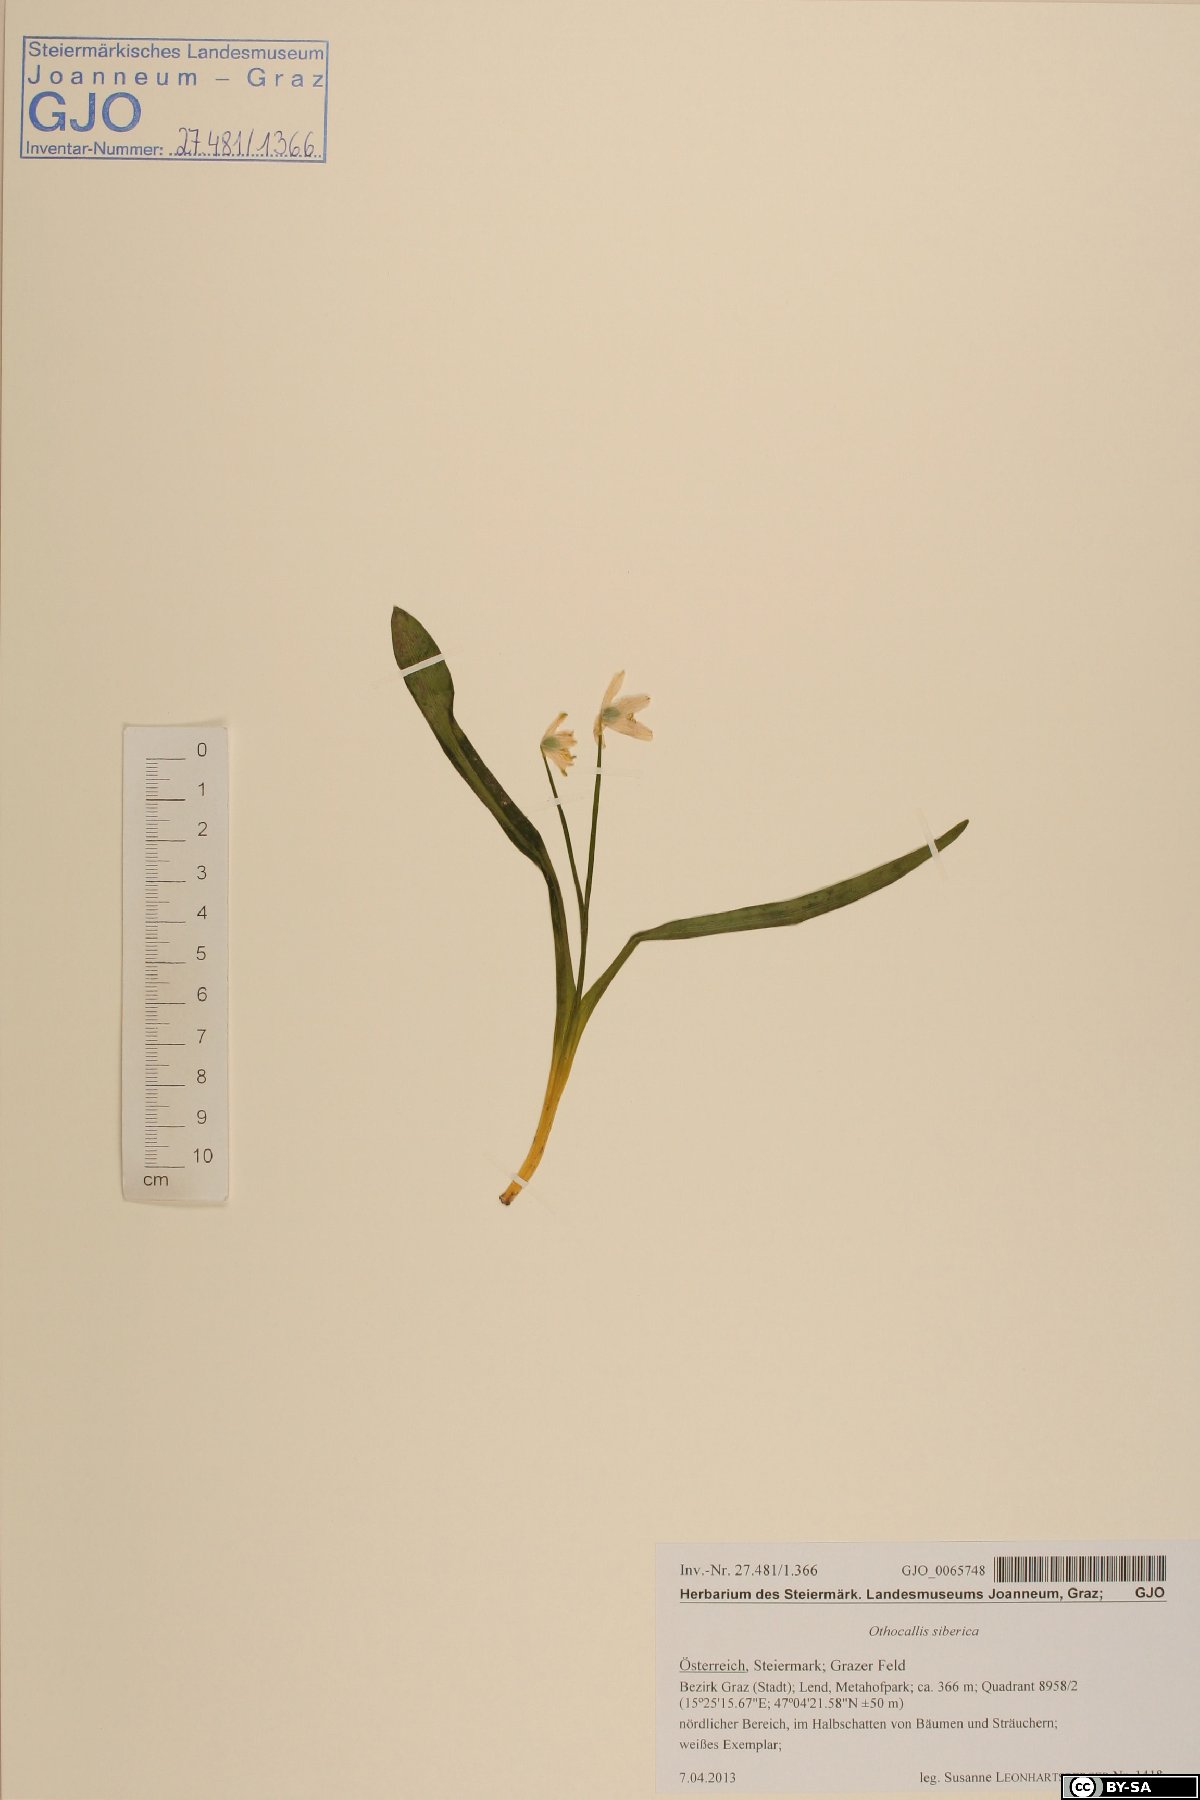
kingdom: Plantae
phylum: Tracheophyta
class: Liliopsida
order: Asparagales
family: Asparagaceae
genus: Scilla
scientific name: Scilla siberica
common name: Siberian squill
